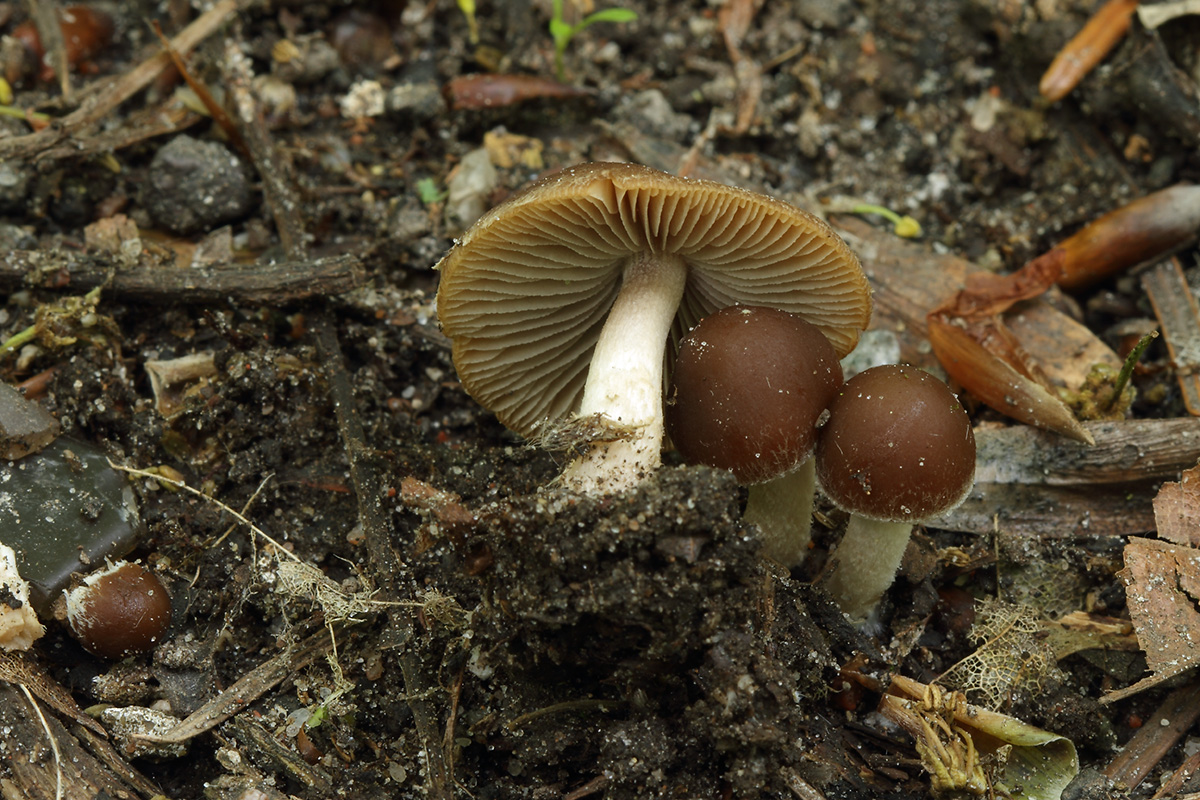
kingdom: Fungi
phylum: Basidiomycota
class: Agaricomycetes
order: Agaricales
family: Psathyrellaceae
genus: Psathyrella
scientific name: Psathyrella spadiceogrisea
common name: gråbrun mørkhat
